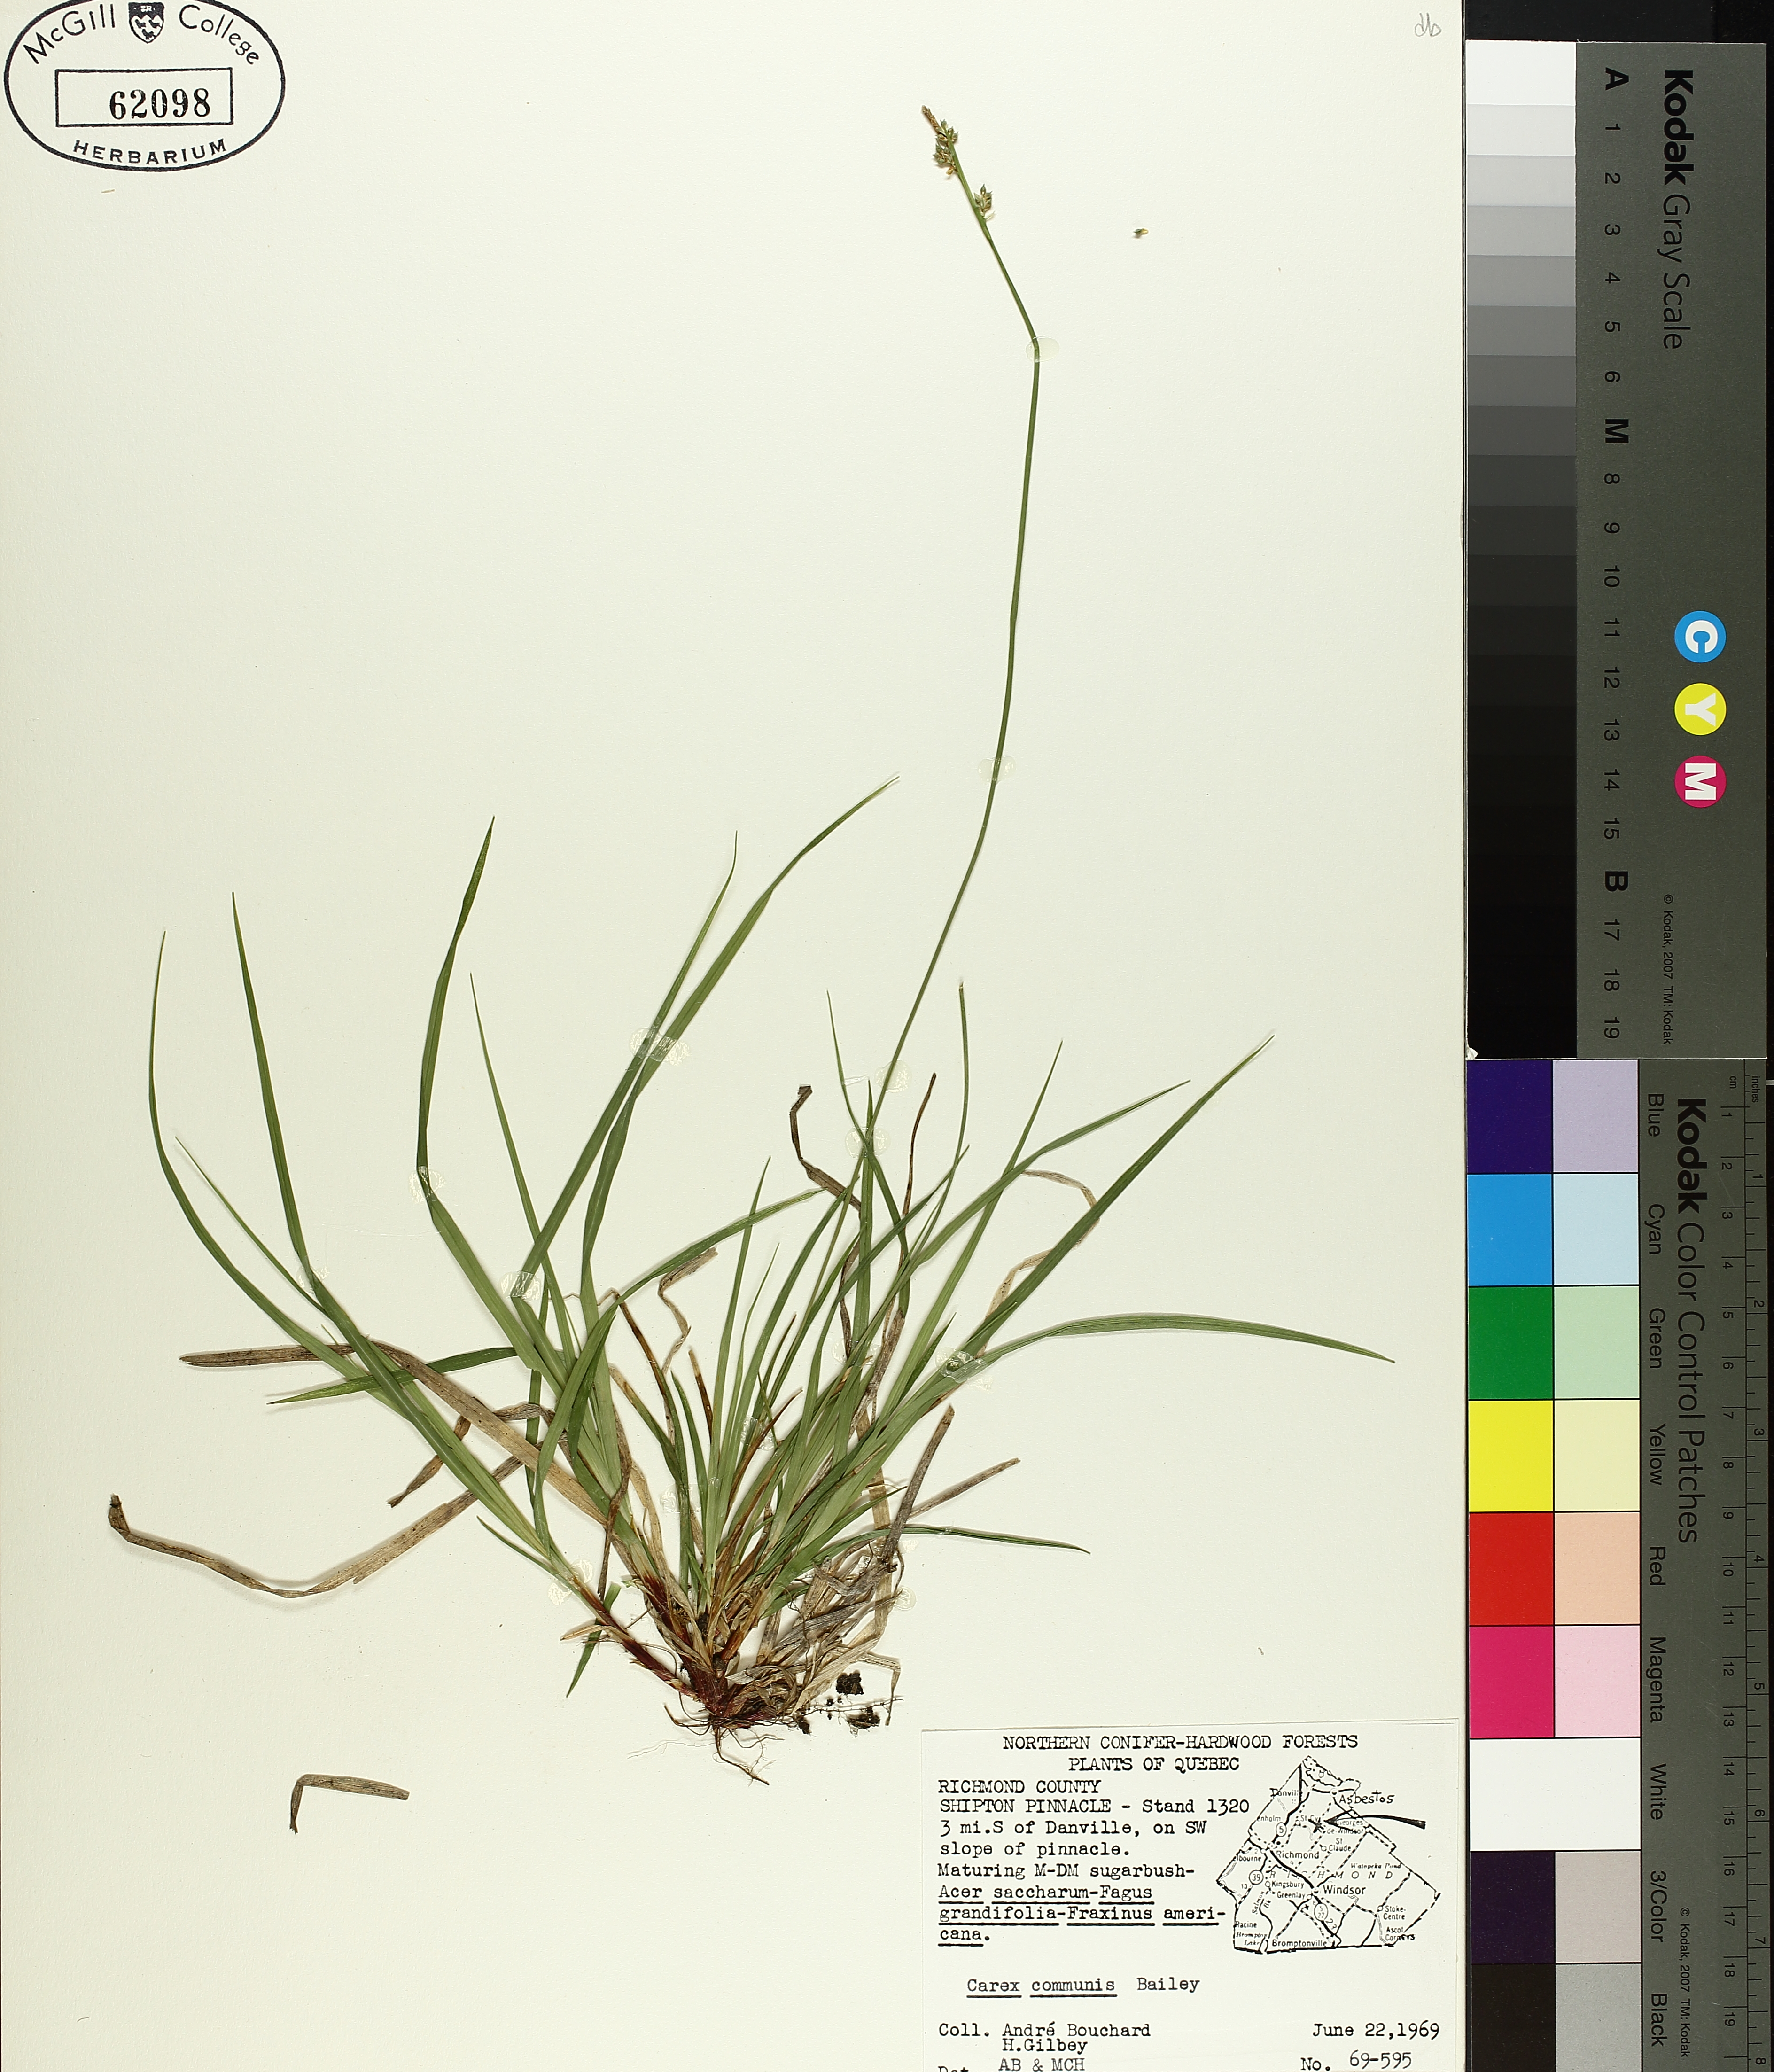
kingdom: Plantae
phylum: Tracheophyta
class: Liliopsida
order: Poales
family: Cyperaceae
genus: Carex
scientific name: Carex communis
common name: Colonial oak sedge
